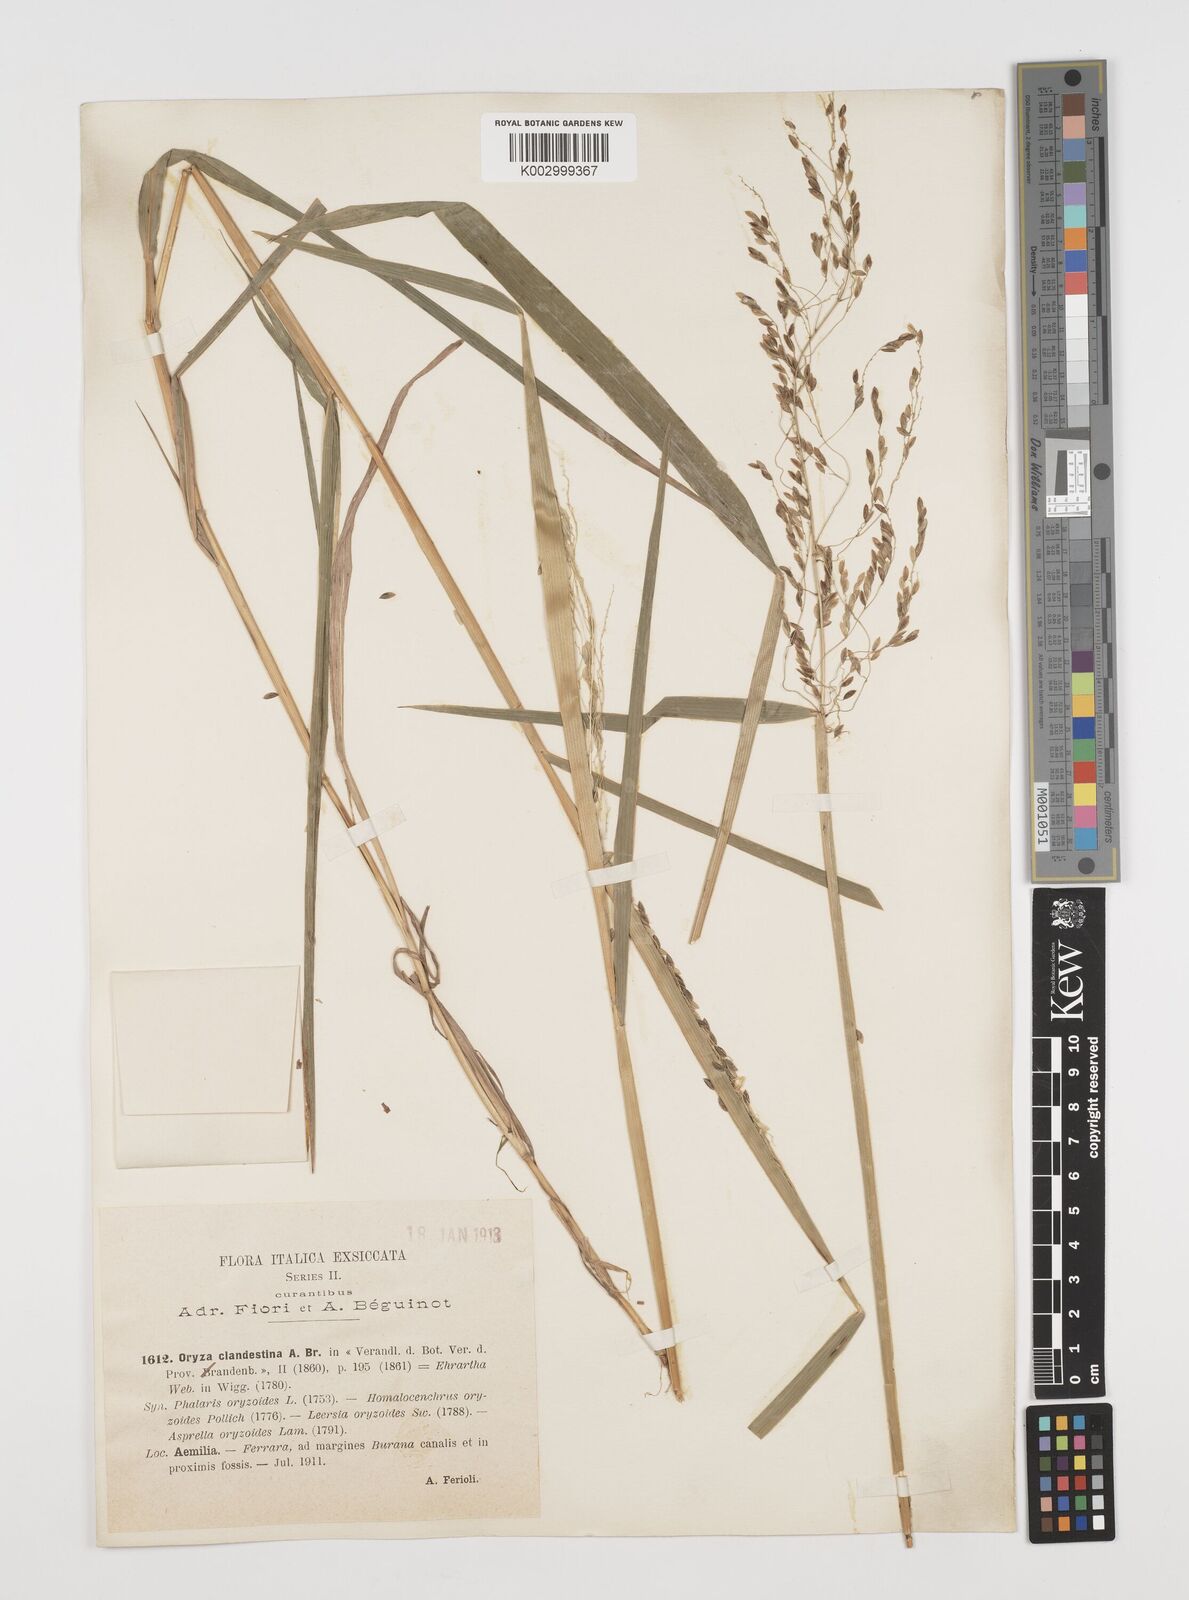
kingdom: Plantae
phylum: Tracheophyta
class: Liliopsida
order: Poales
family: Poaceae
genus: Leersia
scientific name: Leersia oryzoides
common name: Cut-grass
